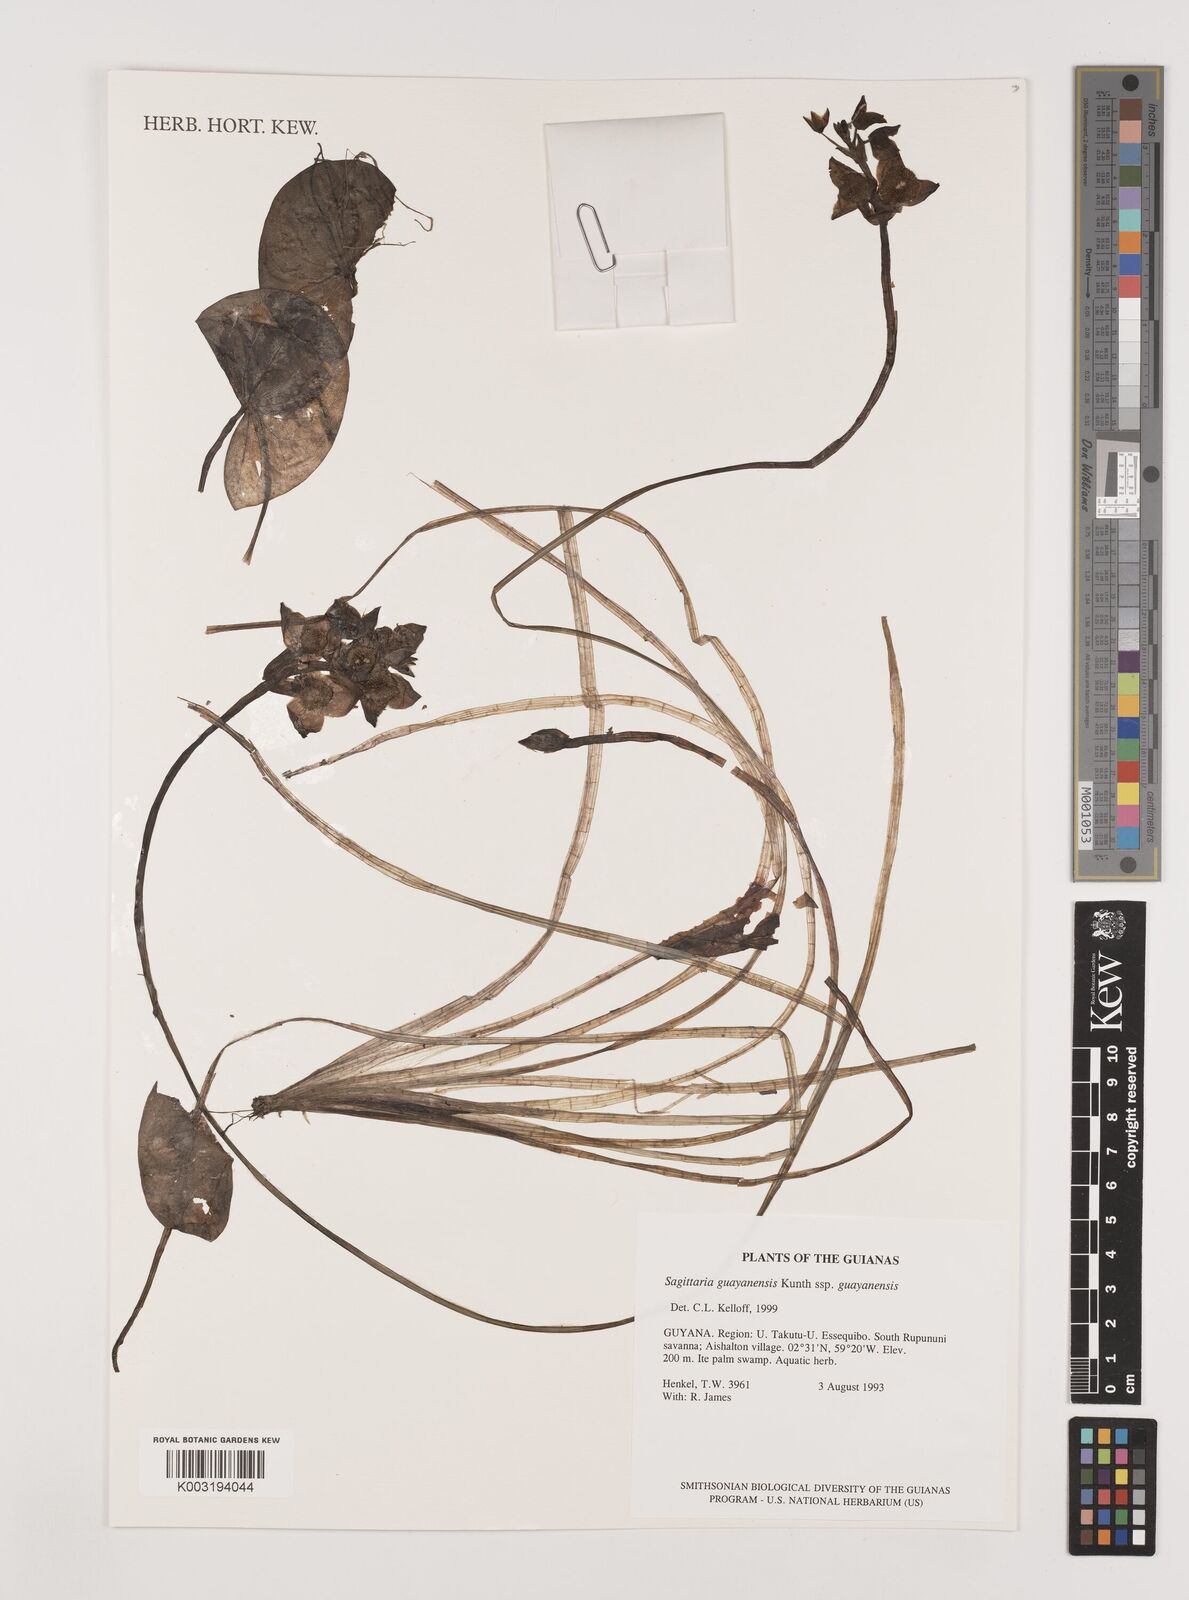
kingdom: Plantae
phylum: Tracheophyta
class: Liliopsida
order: Alismatales
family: Alismataceae
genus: Sagittaria
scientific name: Sagittaria guayanensis
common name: Guyanese arrowhead
